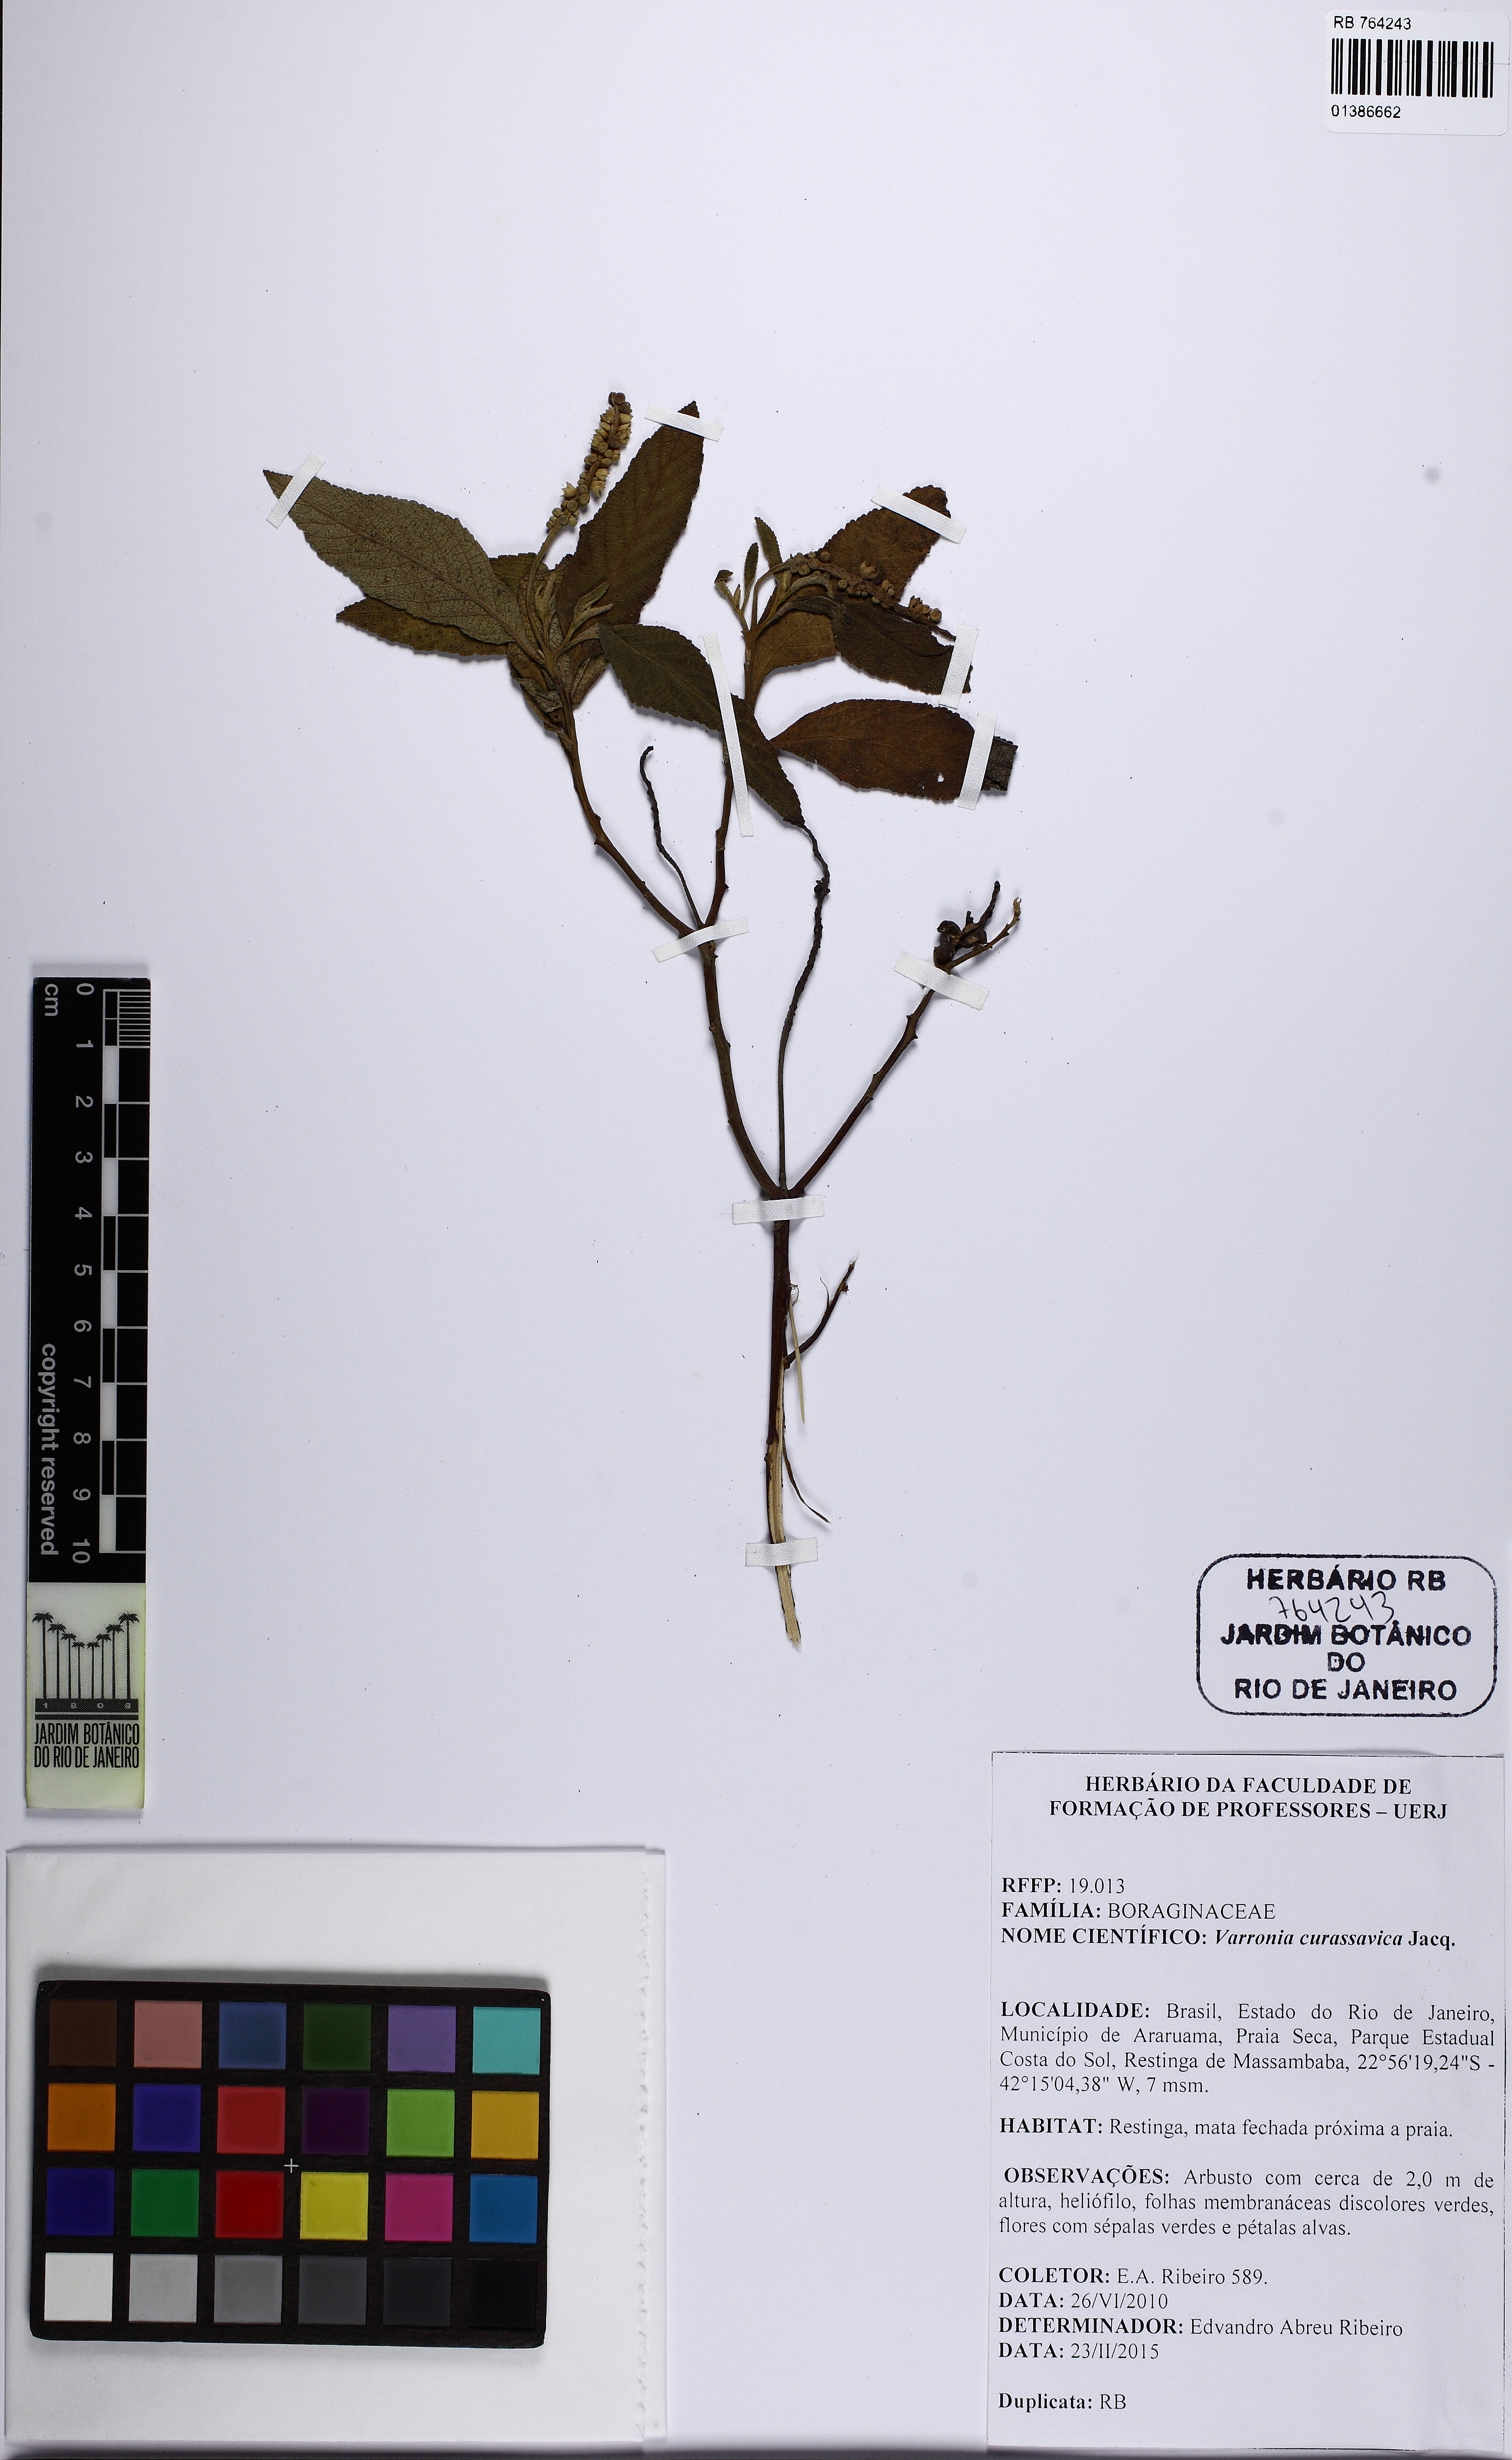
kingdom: Plantae
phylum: Tracheophyta
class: Magnoliopsida
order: Boraginales
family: Cordiaceae
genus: Varronia
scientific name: Varronia curassavica
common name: Black sage
